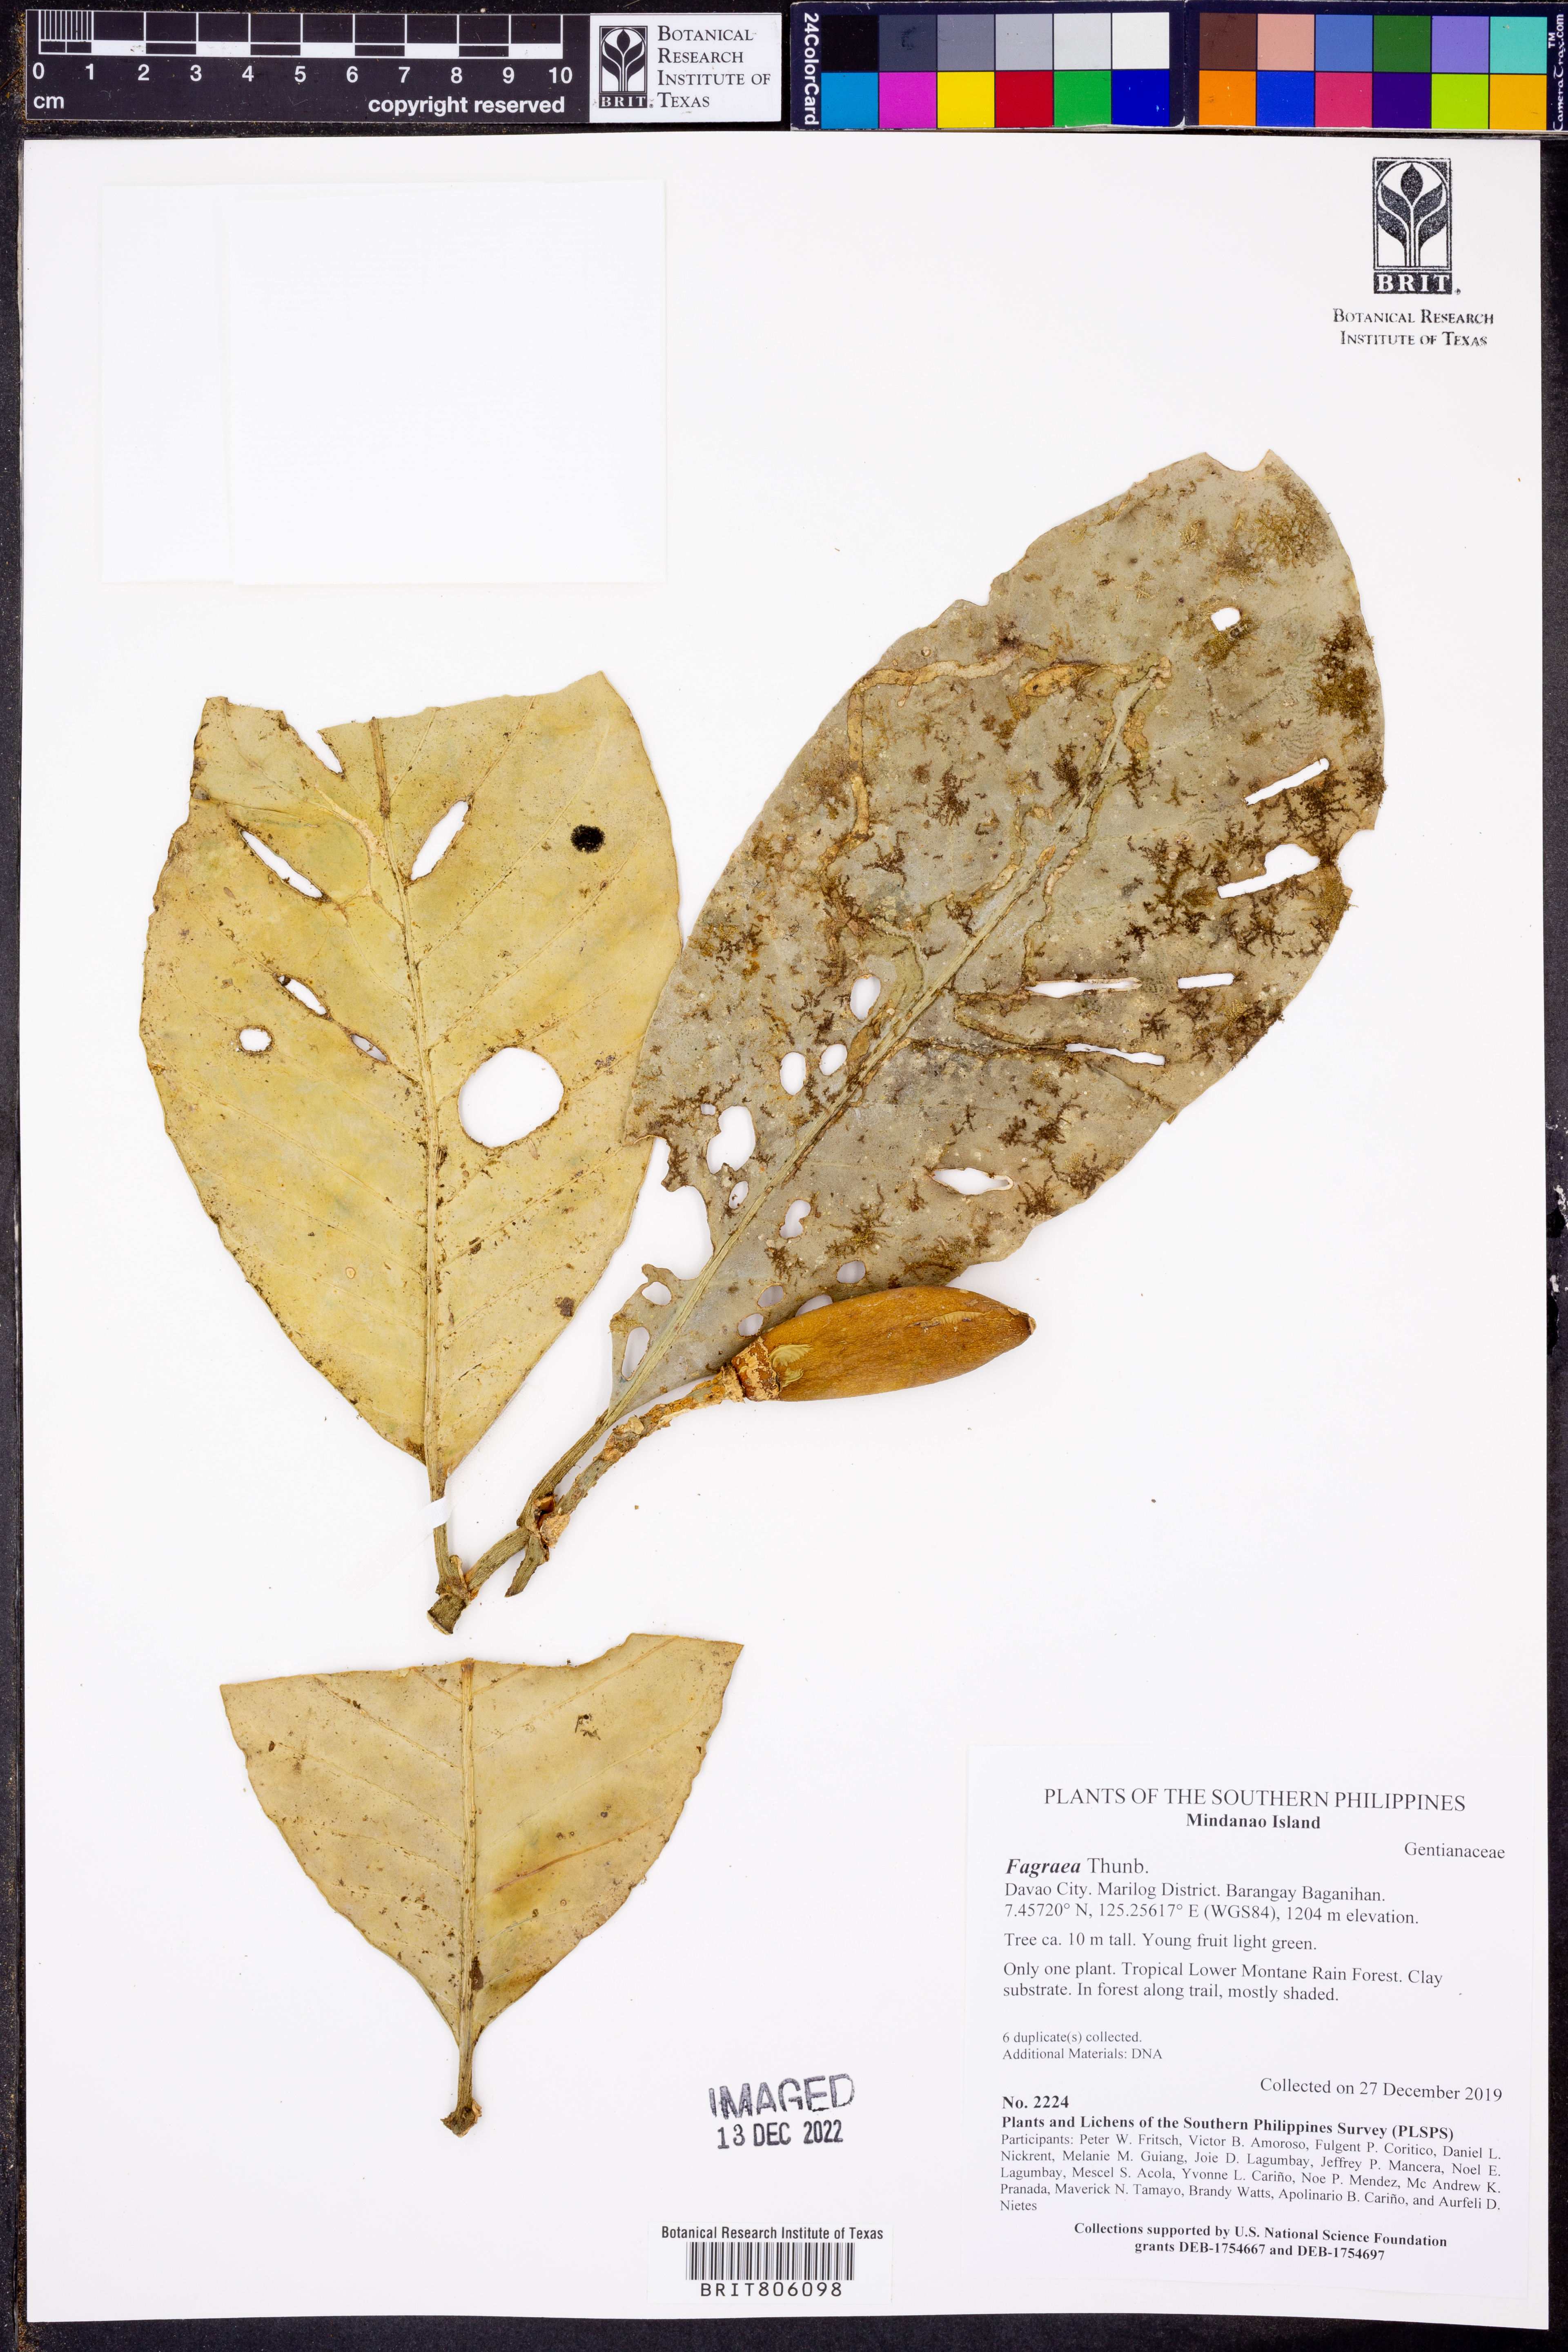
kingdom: Plantae
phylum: Tracheophyta
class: Magnoliopsida
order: Gentianales
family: Gentianaceae
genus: Fagraea
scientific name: Fagraea
